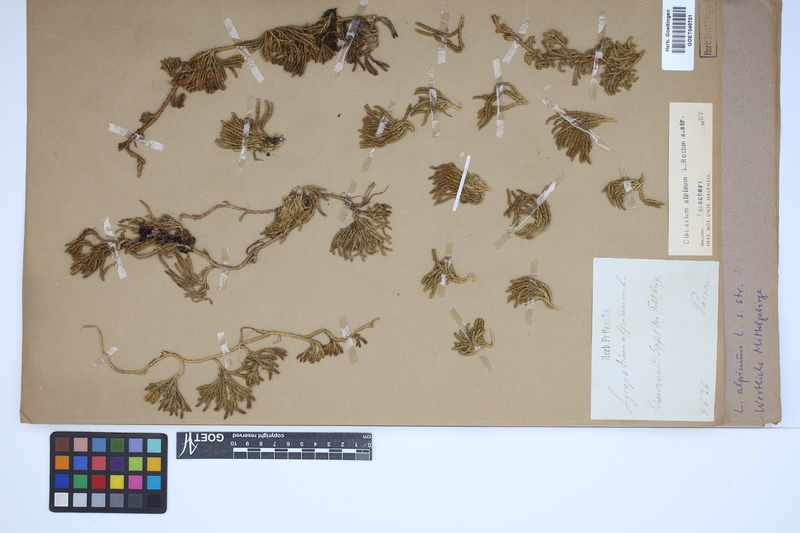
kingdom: Plantae
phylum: Tracheophyta
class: Lycopodiopsida
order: Lycopodiales
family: Lycopodiaceae
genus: Diphasiastrum
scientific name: Diphasiastrum alpinum
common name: Alpine clubmoss
